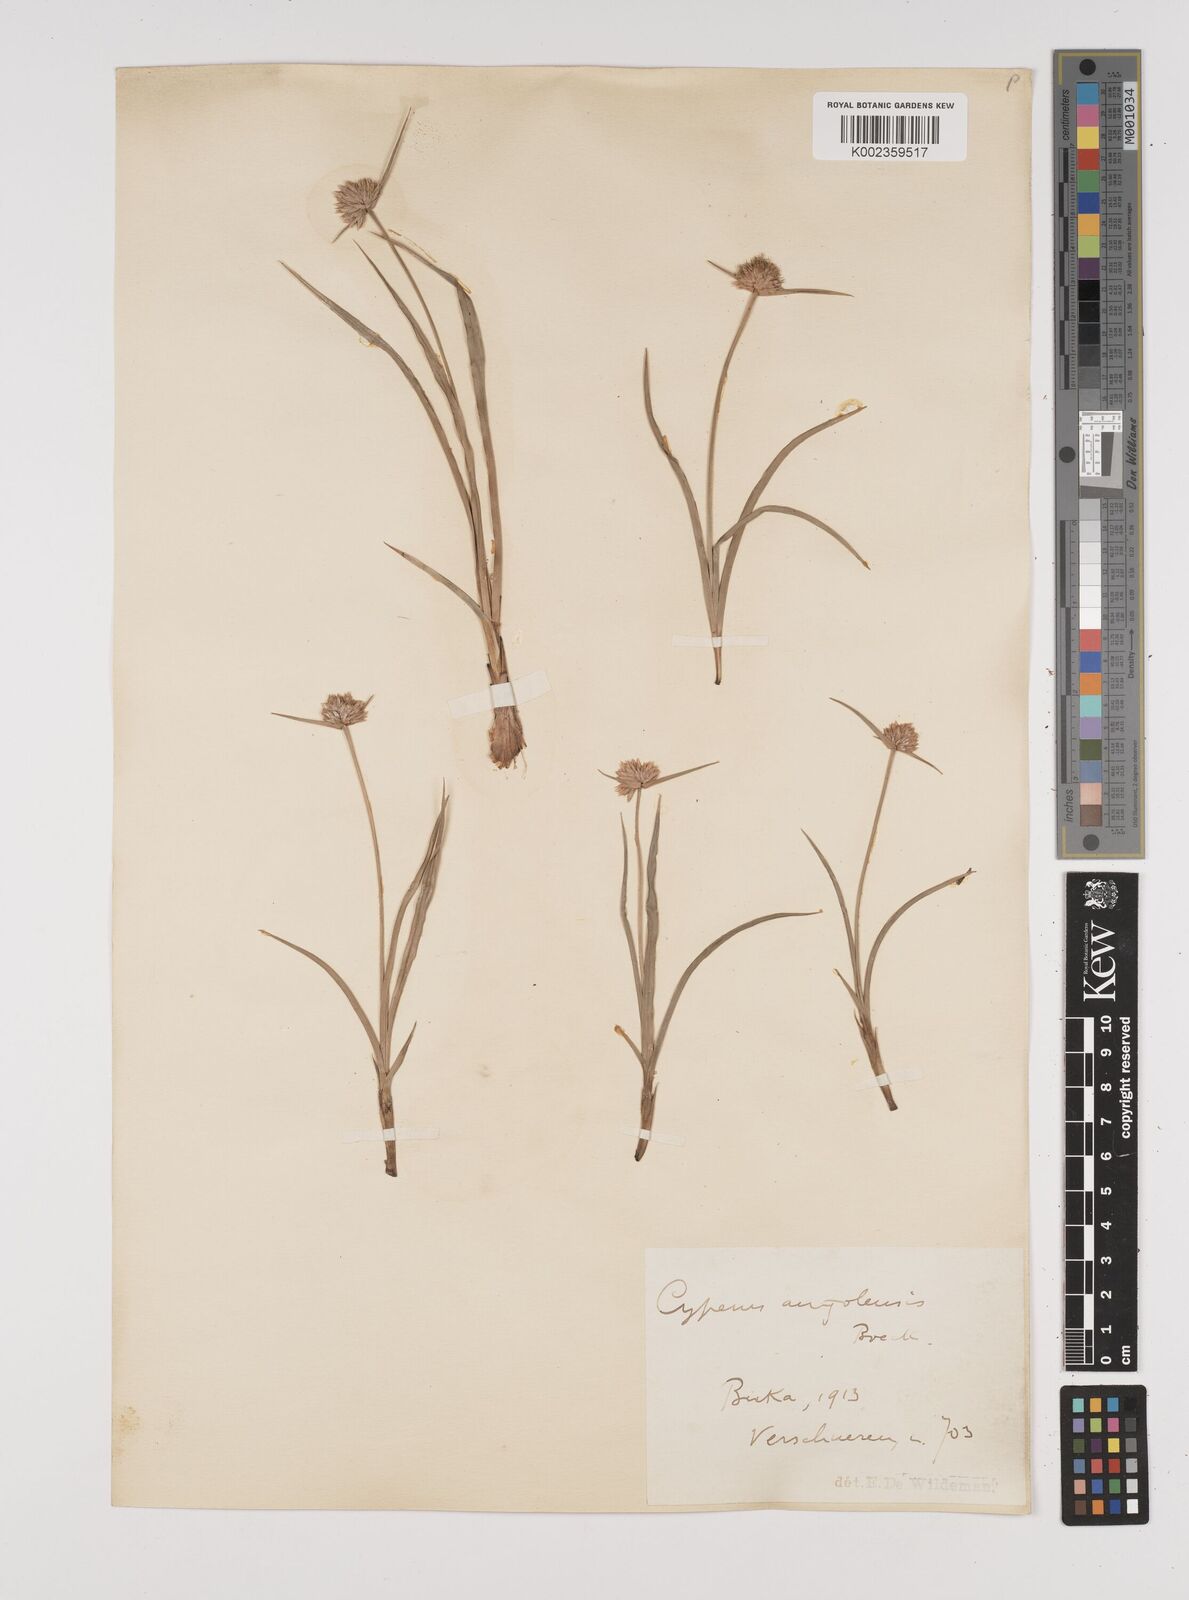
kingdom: Plantae
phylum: Tracheophyta
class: Liliopsida
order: Poales
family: Cyperaceae
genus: Cyperus
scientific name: Cyperus angolensis
